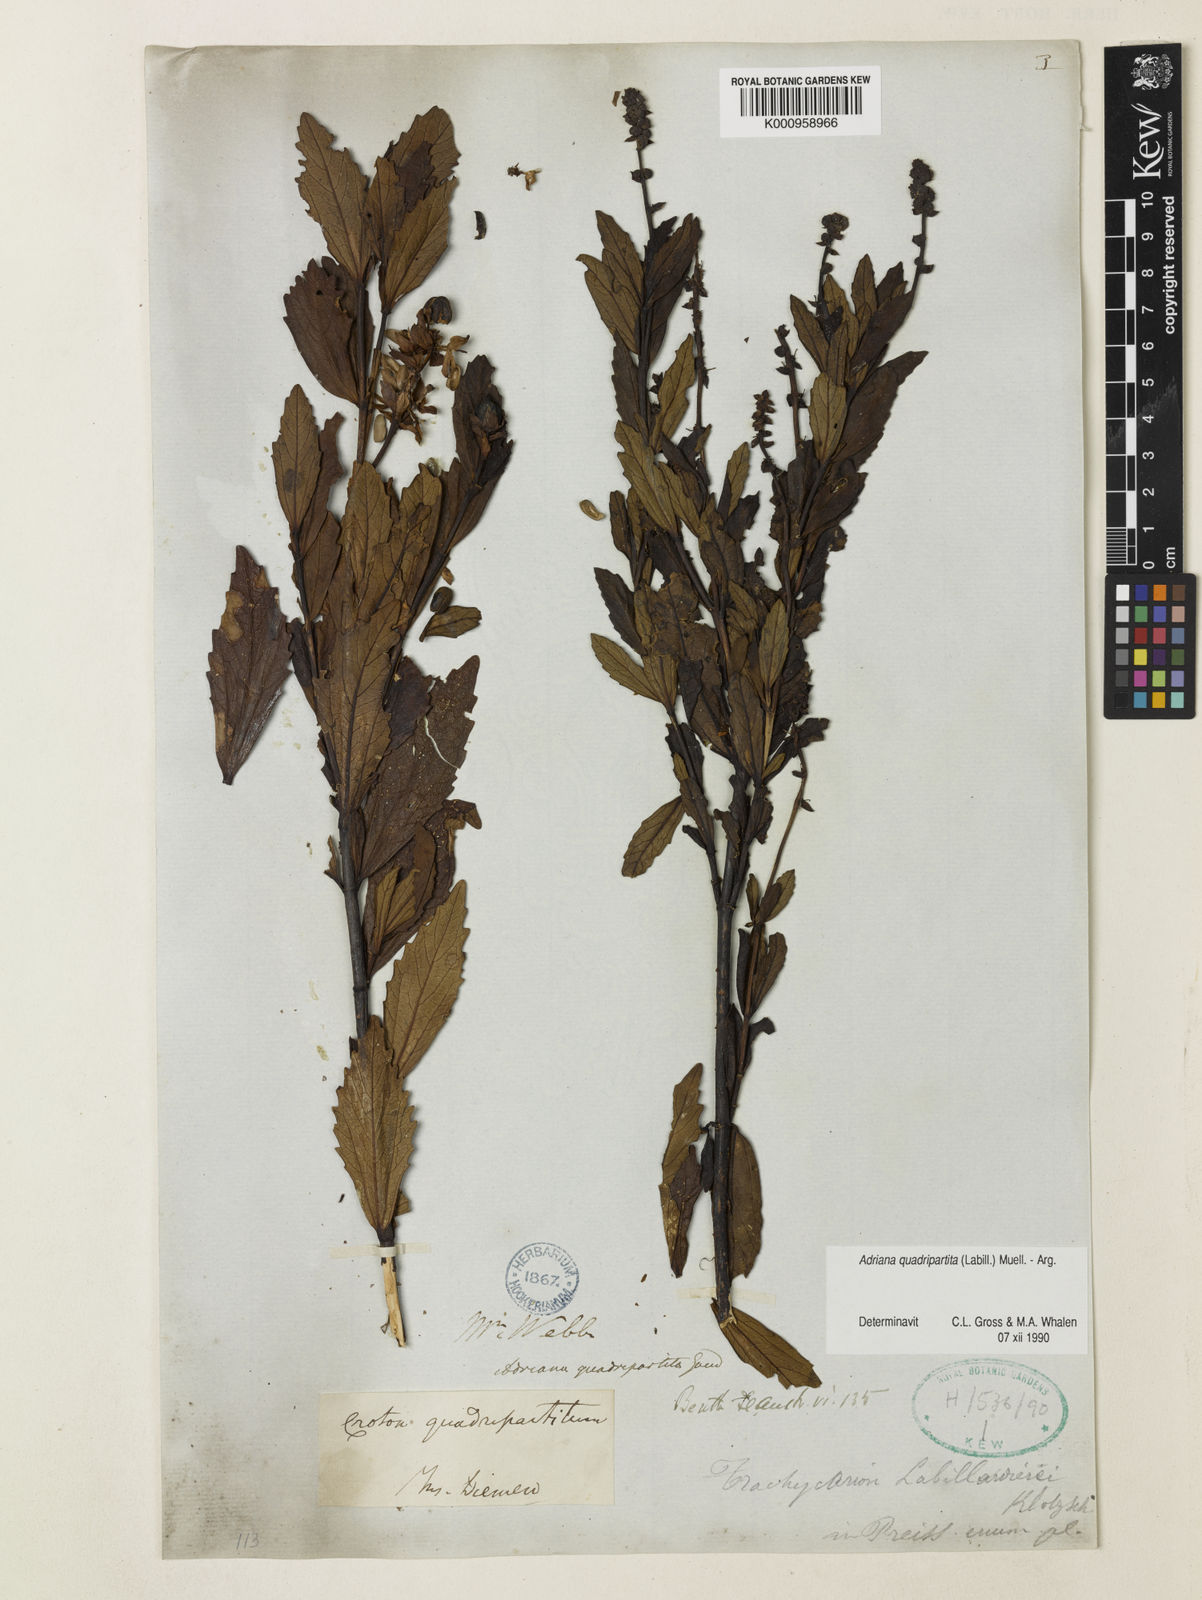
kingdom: Plantae
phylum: Tracheophyta
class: Magnoliopsida
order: Malpighiales
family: Euphorbiaceae
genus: Adriana
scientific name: Adriana quadripartita
